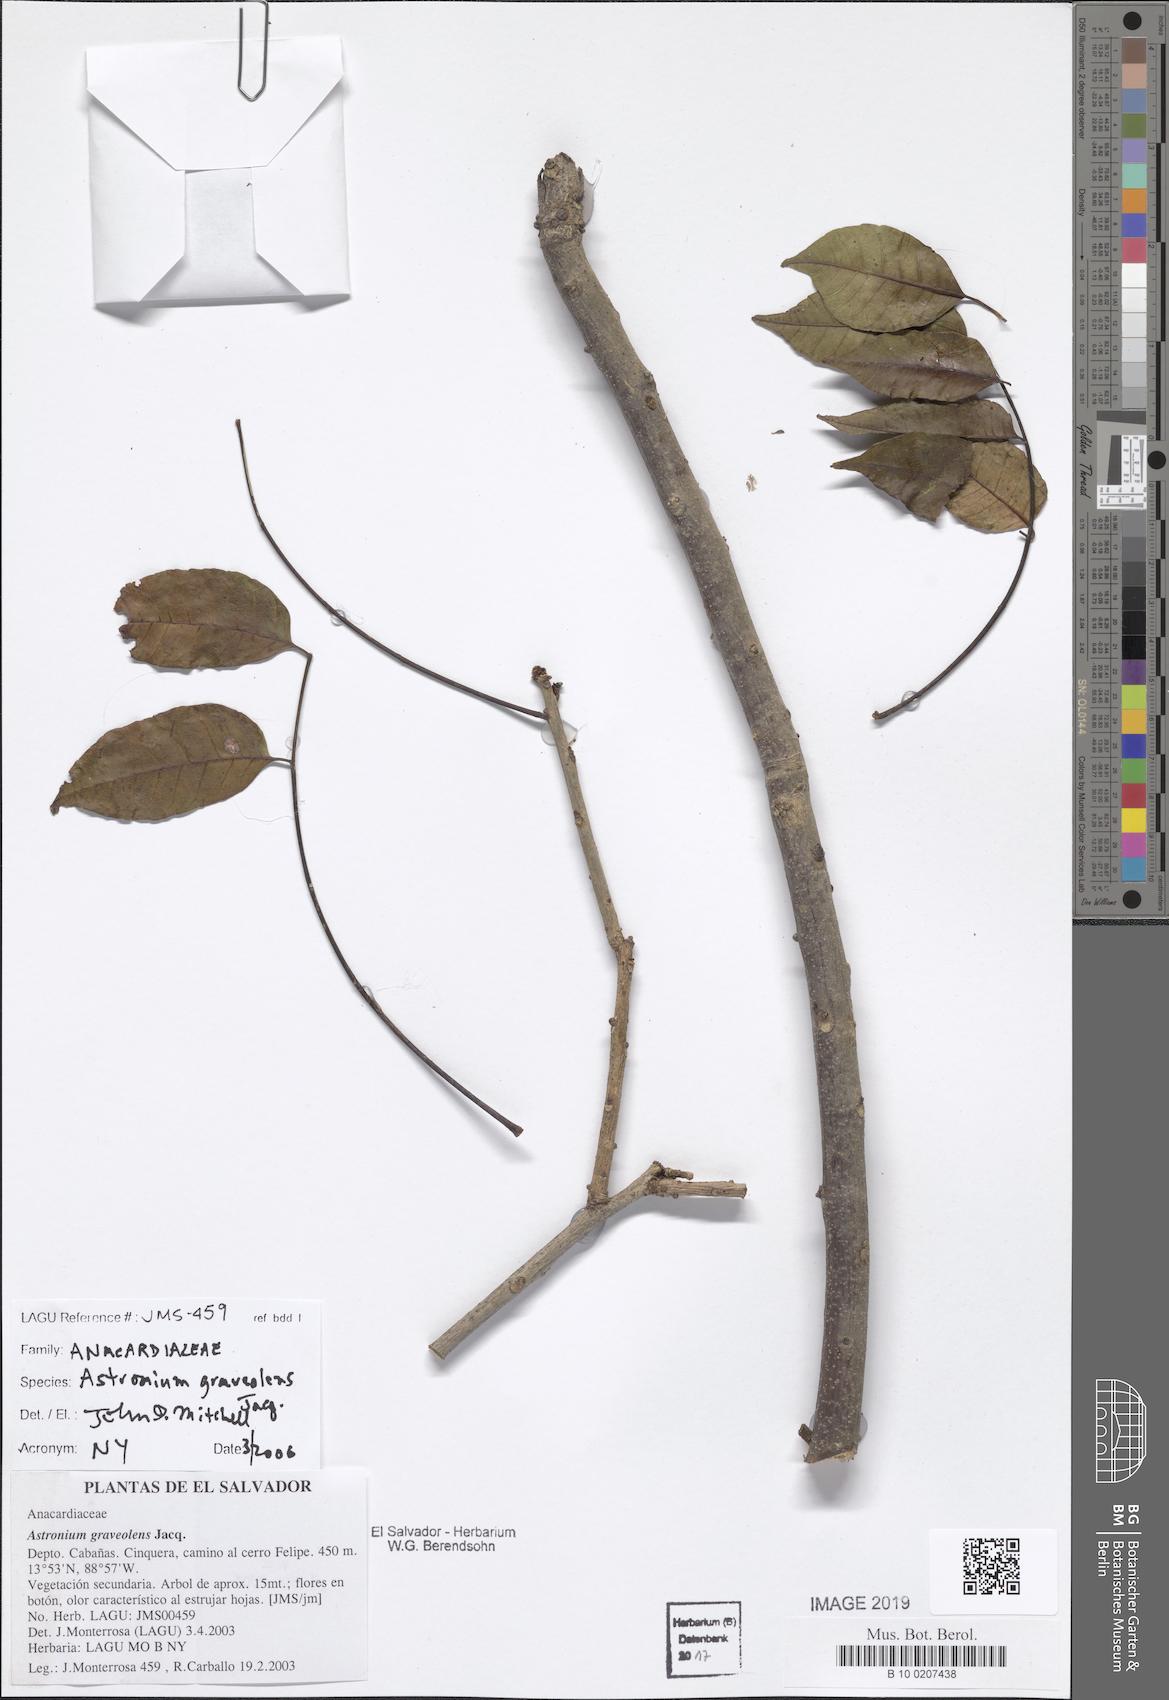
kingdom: Plantae
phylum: Tracheophyta
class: Magnoliopsida
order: Sapindales
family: Anacardiaceae
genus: Astronium
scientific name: Astronium graveolens
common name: Glassywood
